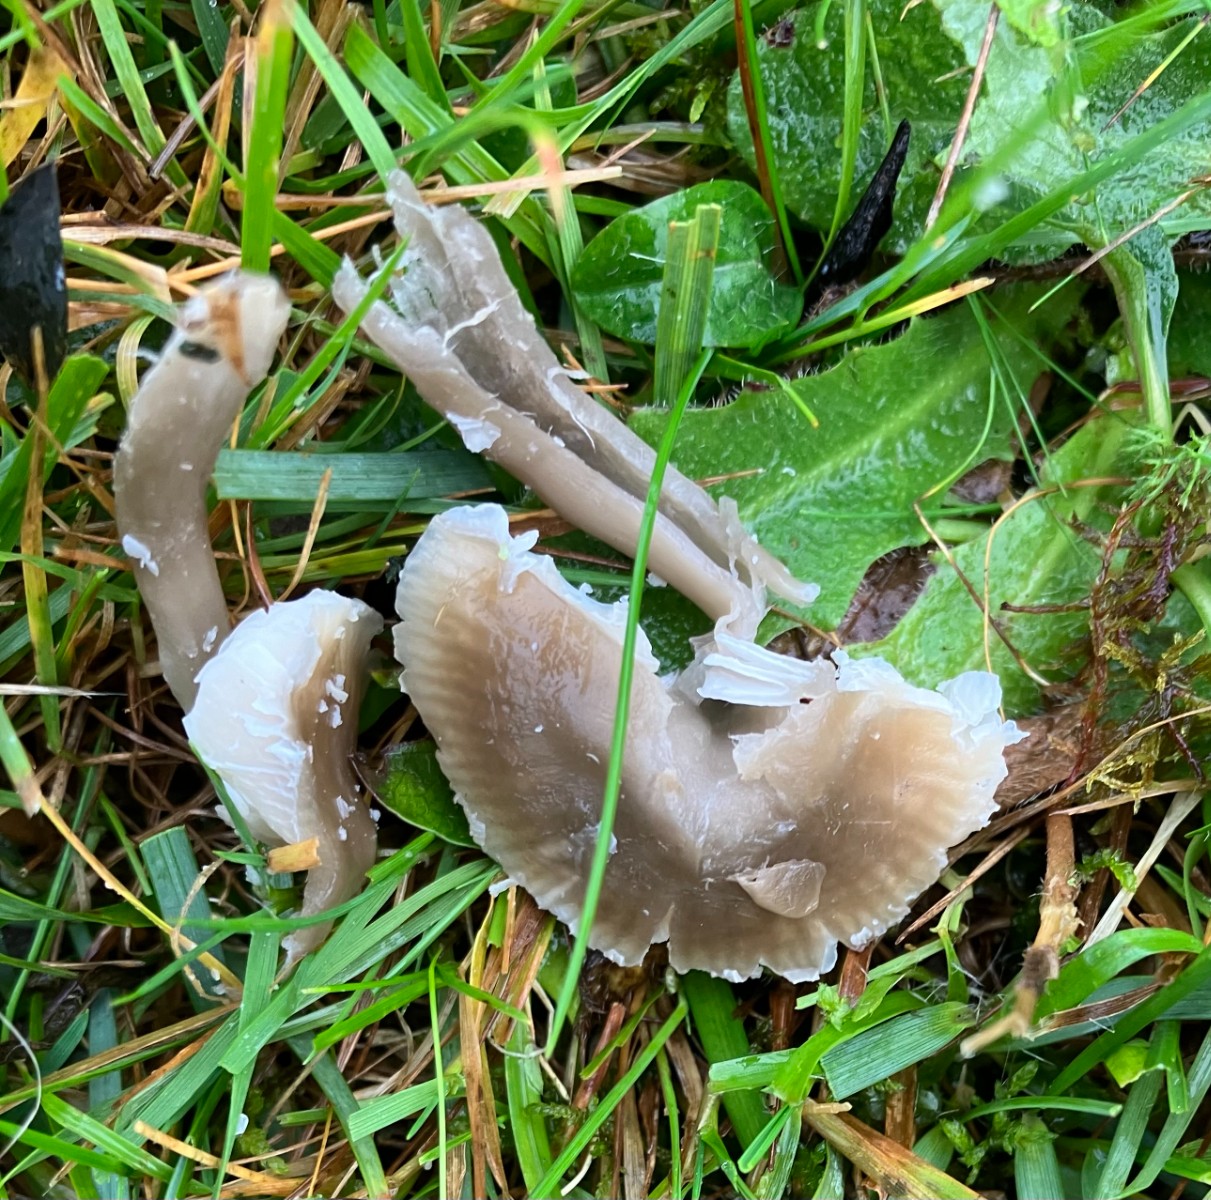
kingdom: Fungi
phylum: Basidiomycota
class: Agaricomycetes
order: Agaricales
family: Hygrophoraceae
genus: Gliophorus
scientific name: Gliophorus irrigatus
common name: slimet vokshat
